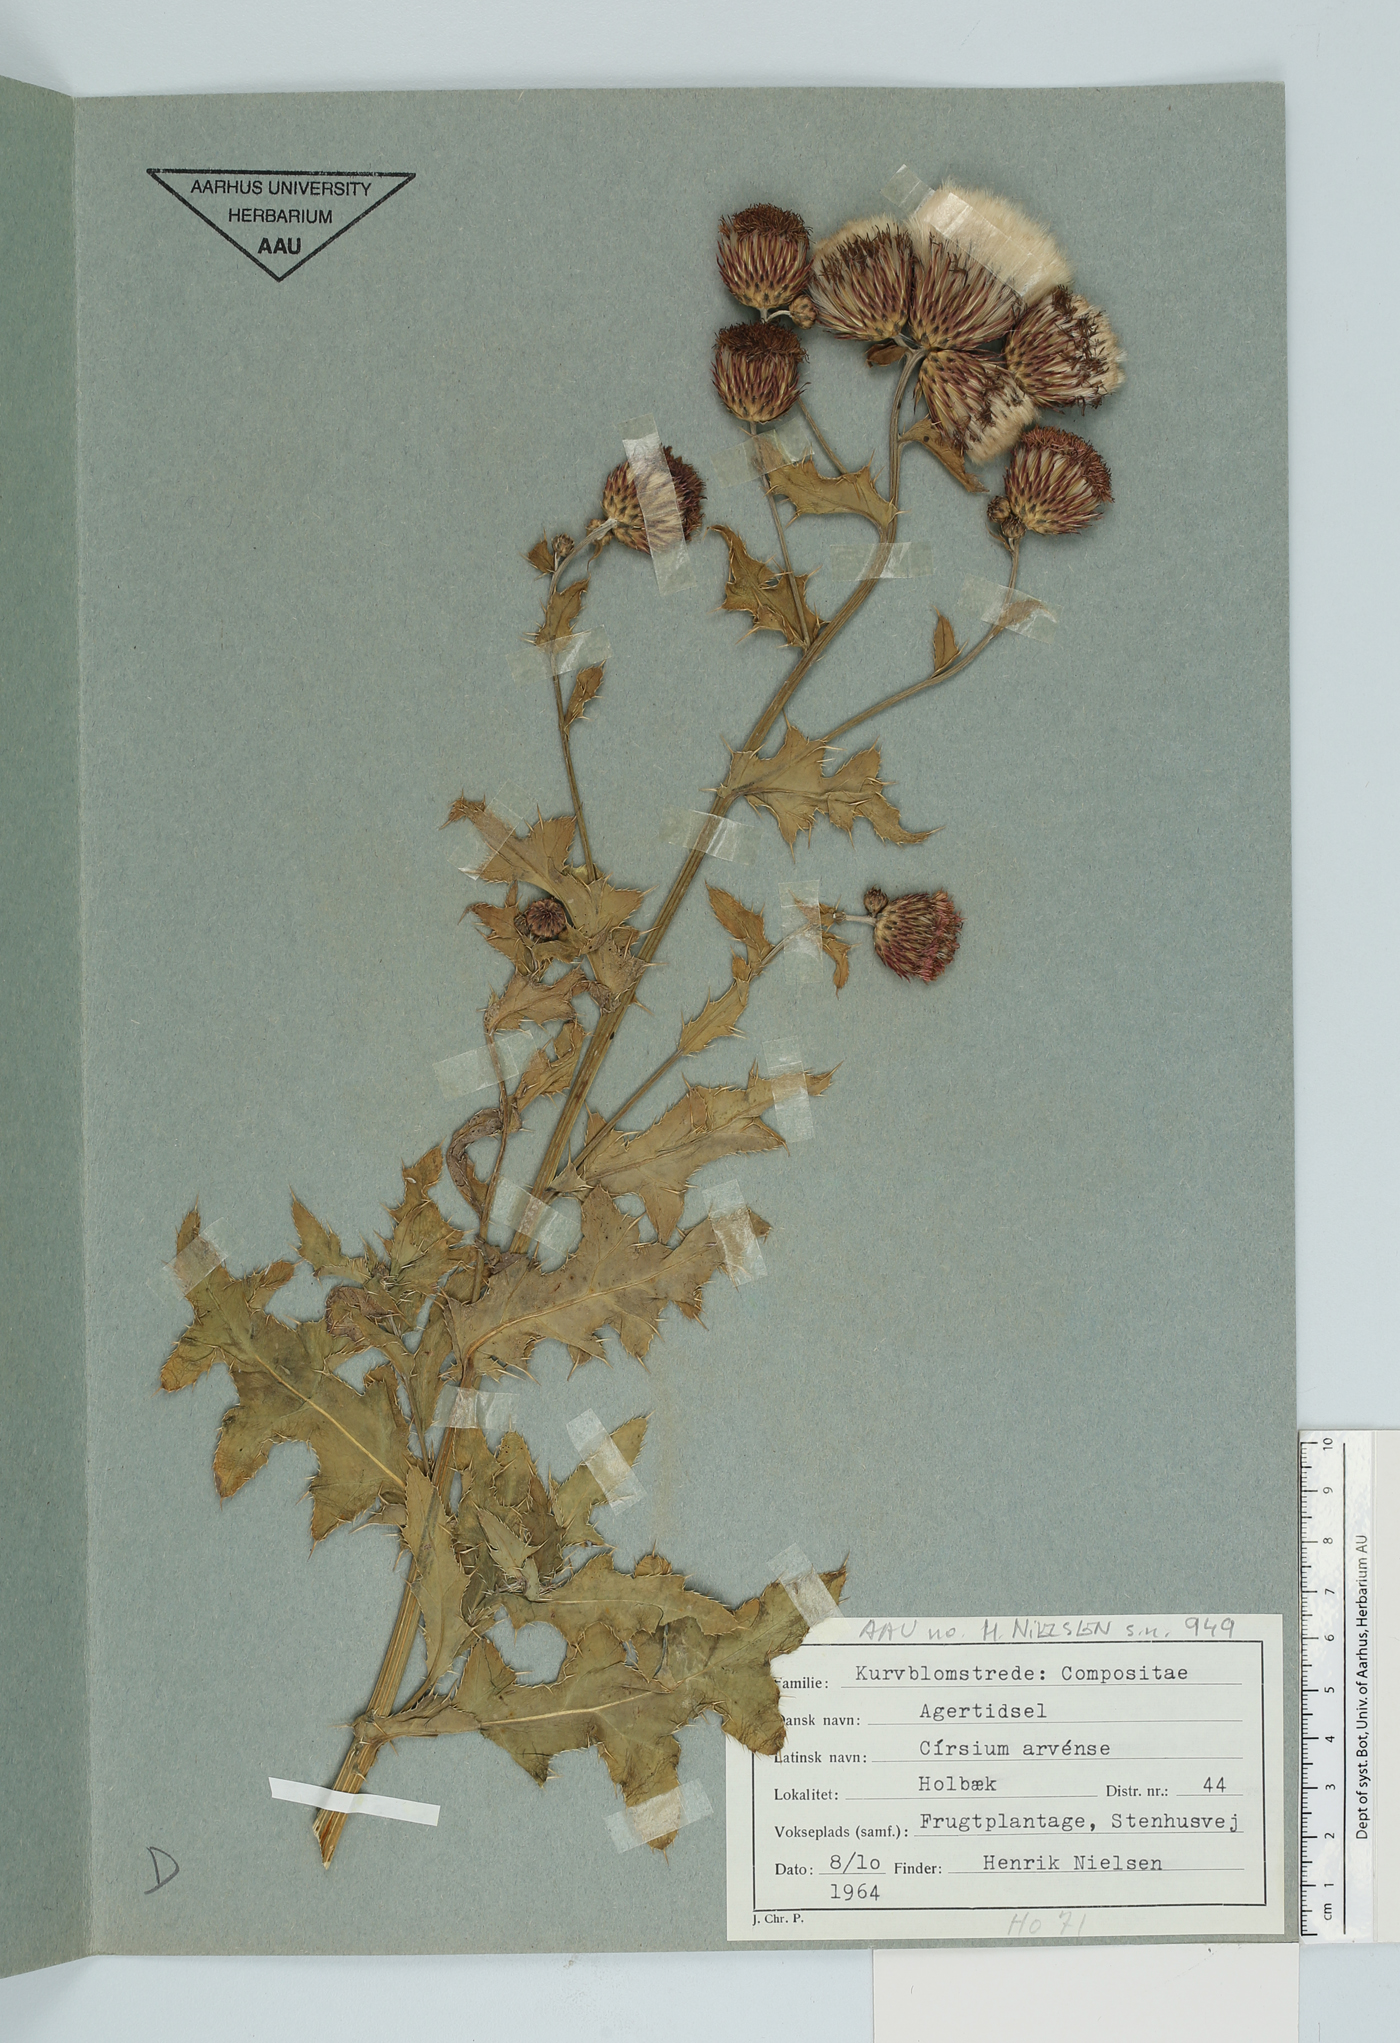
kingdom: Plantae
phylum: Tracheophyta
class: Magnoliopsida
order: Asterales
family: Asteraceae
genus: Cirsium
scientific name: Cirsium arvense
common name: Creeping thistle
